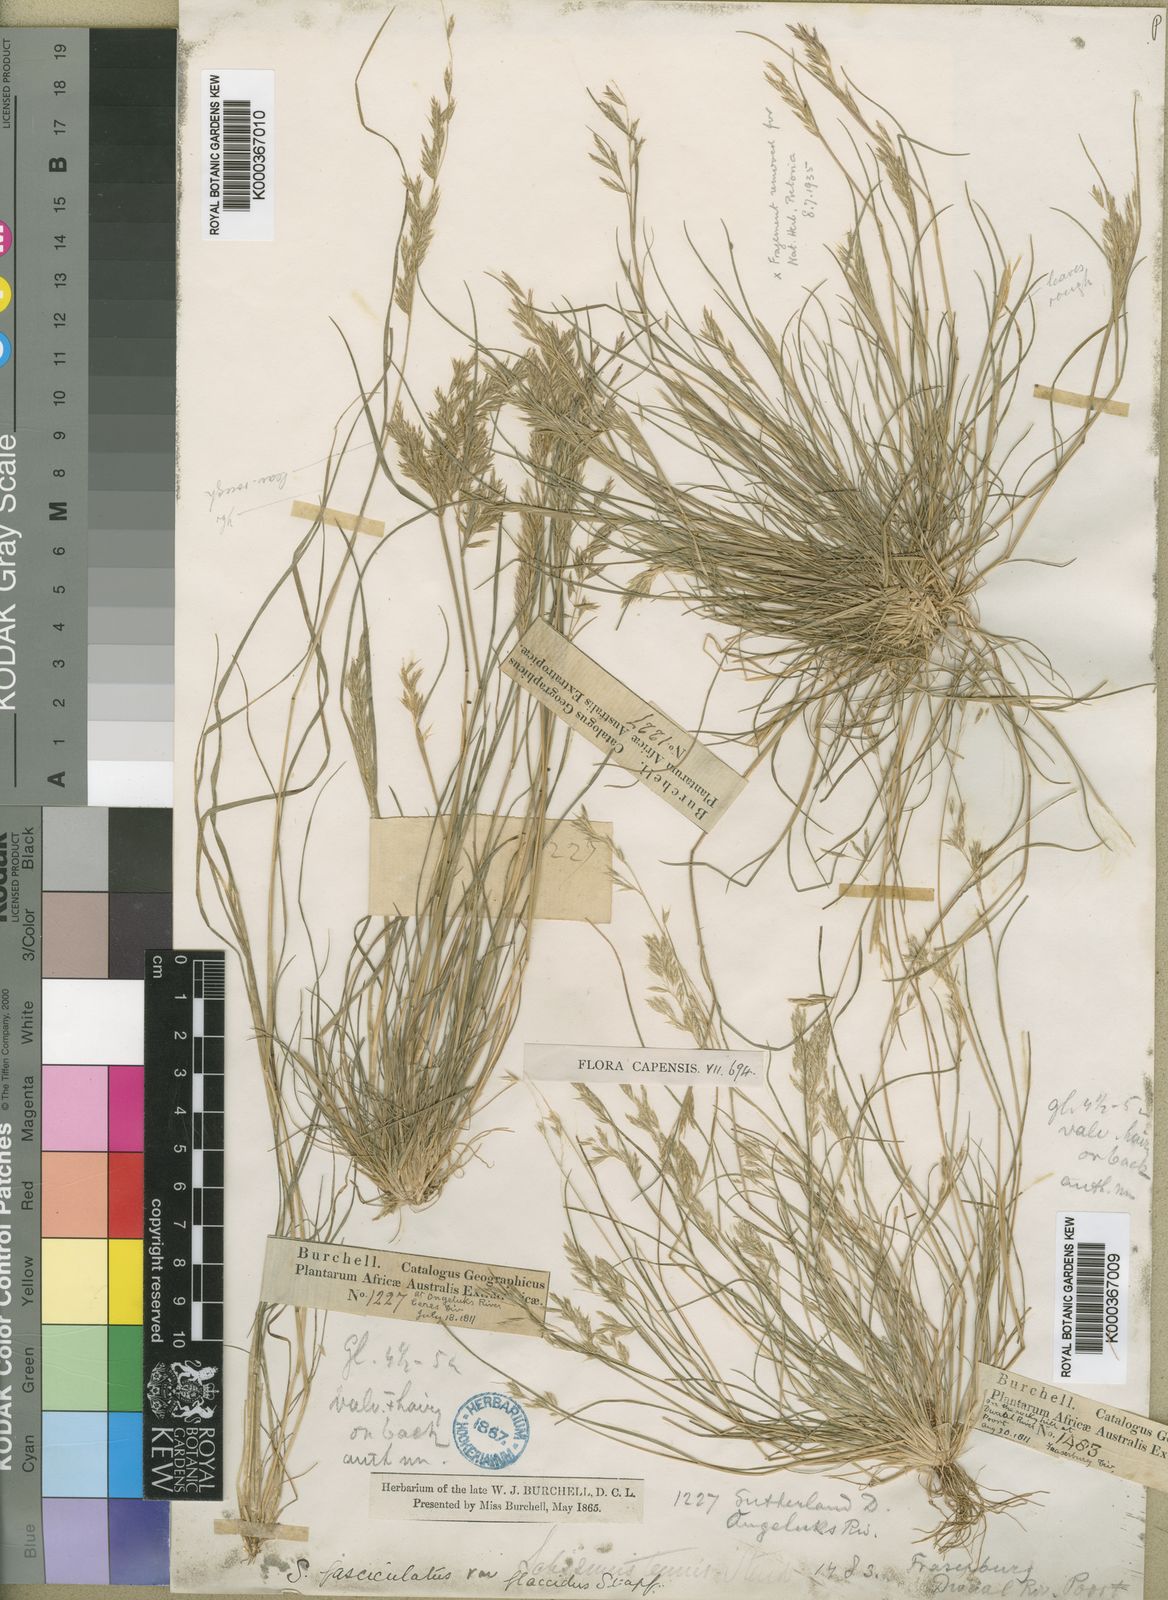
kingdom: Plantae
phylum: Tracheophyta
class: Liliopsida
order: Poales
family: Poaceae
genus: Schismus
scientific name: Schismus barbatus
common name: Kelch-grass
